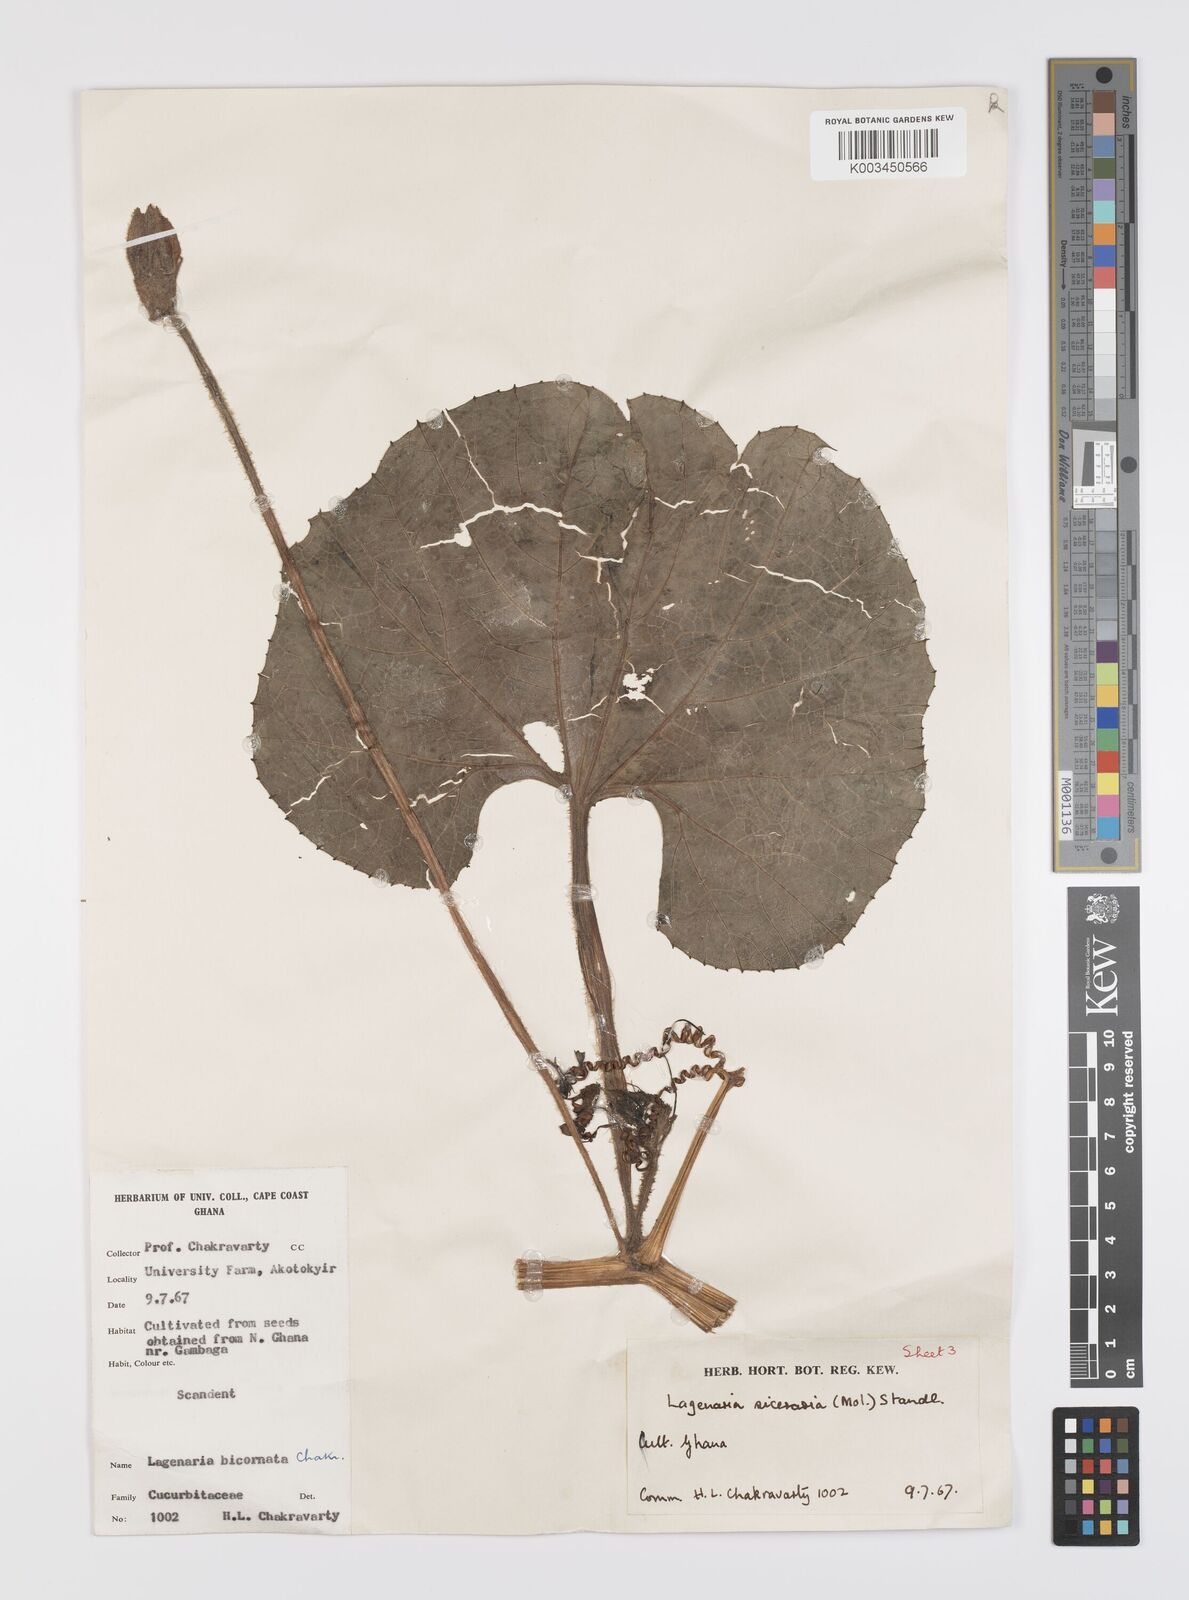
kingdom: Plantae
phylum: Tracheophyta
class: Magnoliopsida
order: Cucurbitales
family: Cucurbitaceae
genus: Lagenaria
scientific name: Lagenaria siceraria
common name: Bottle gourd
